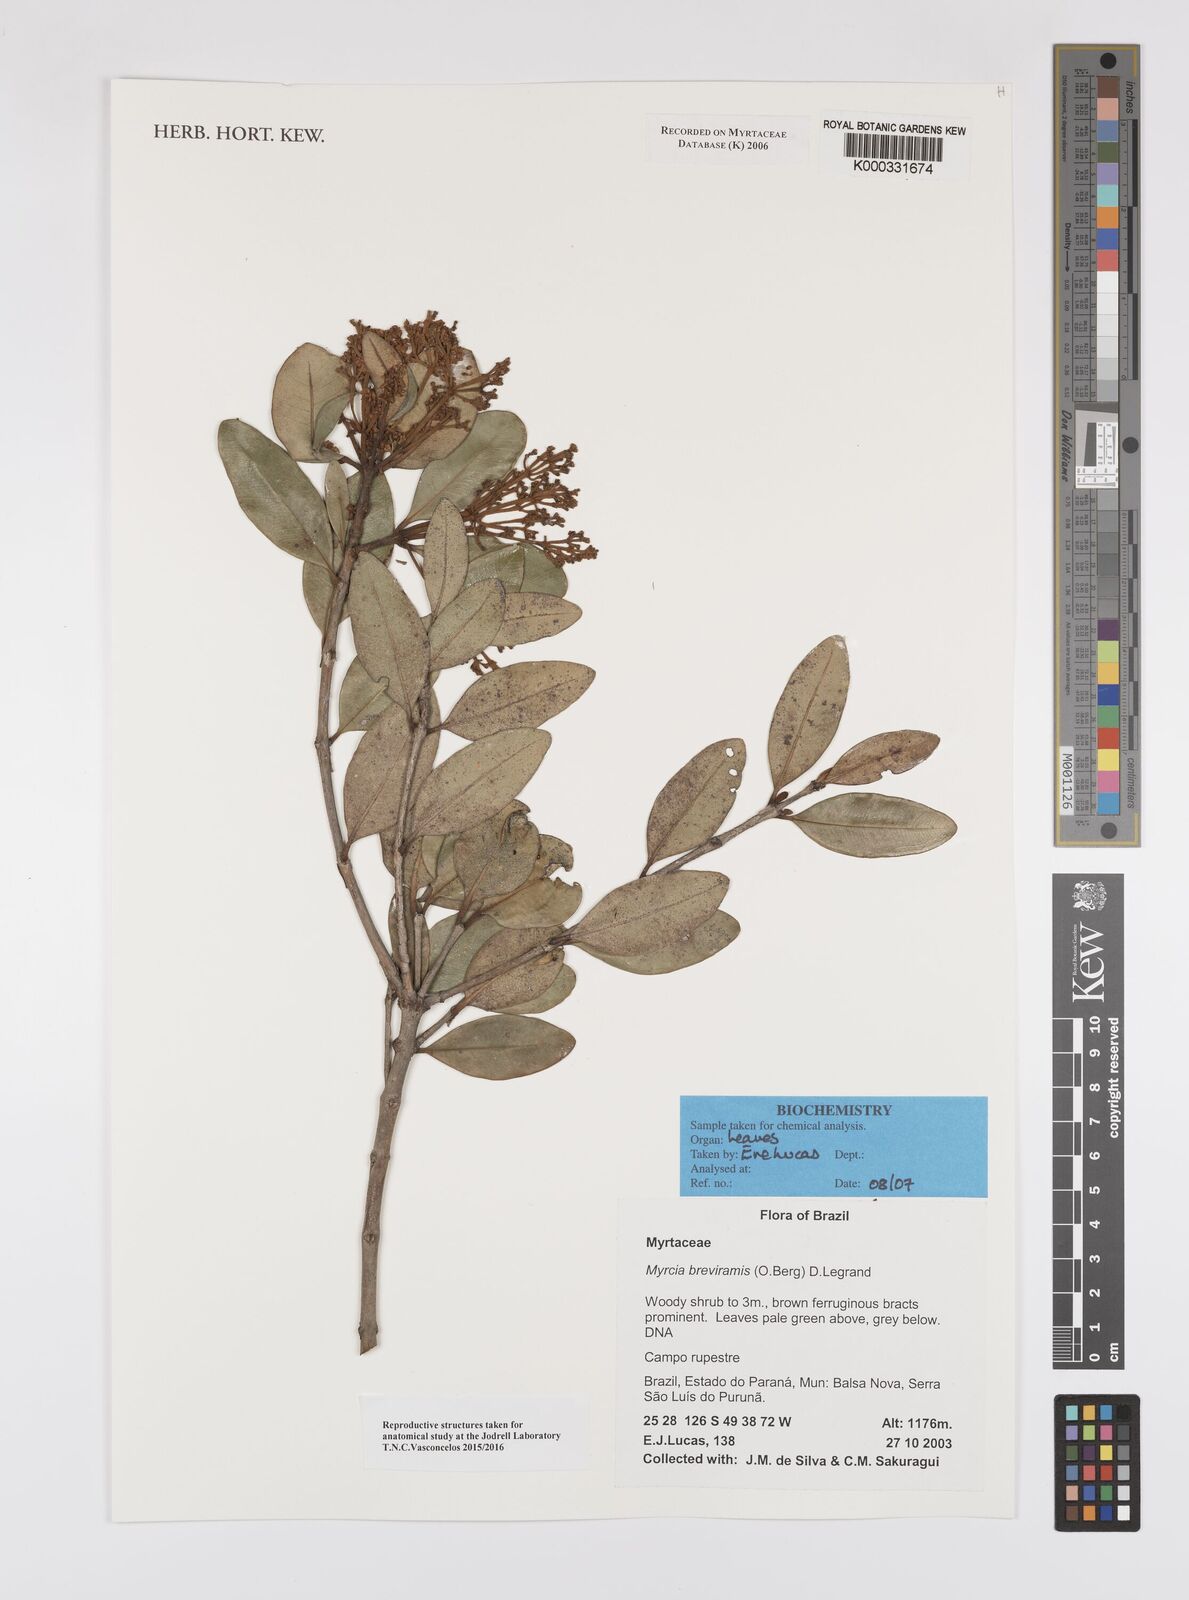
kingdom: Plantae
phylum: Tracheophyta
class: Magnoliopsida
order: Myrtales
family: Myrtaceae
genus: Myrcia
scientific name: Myrcia pulchra
